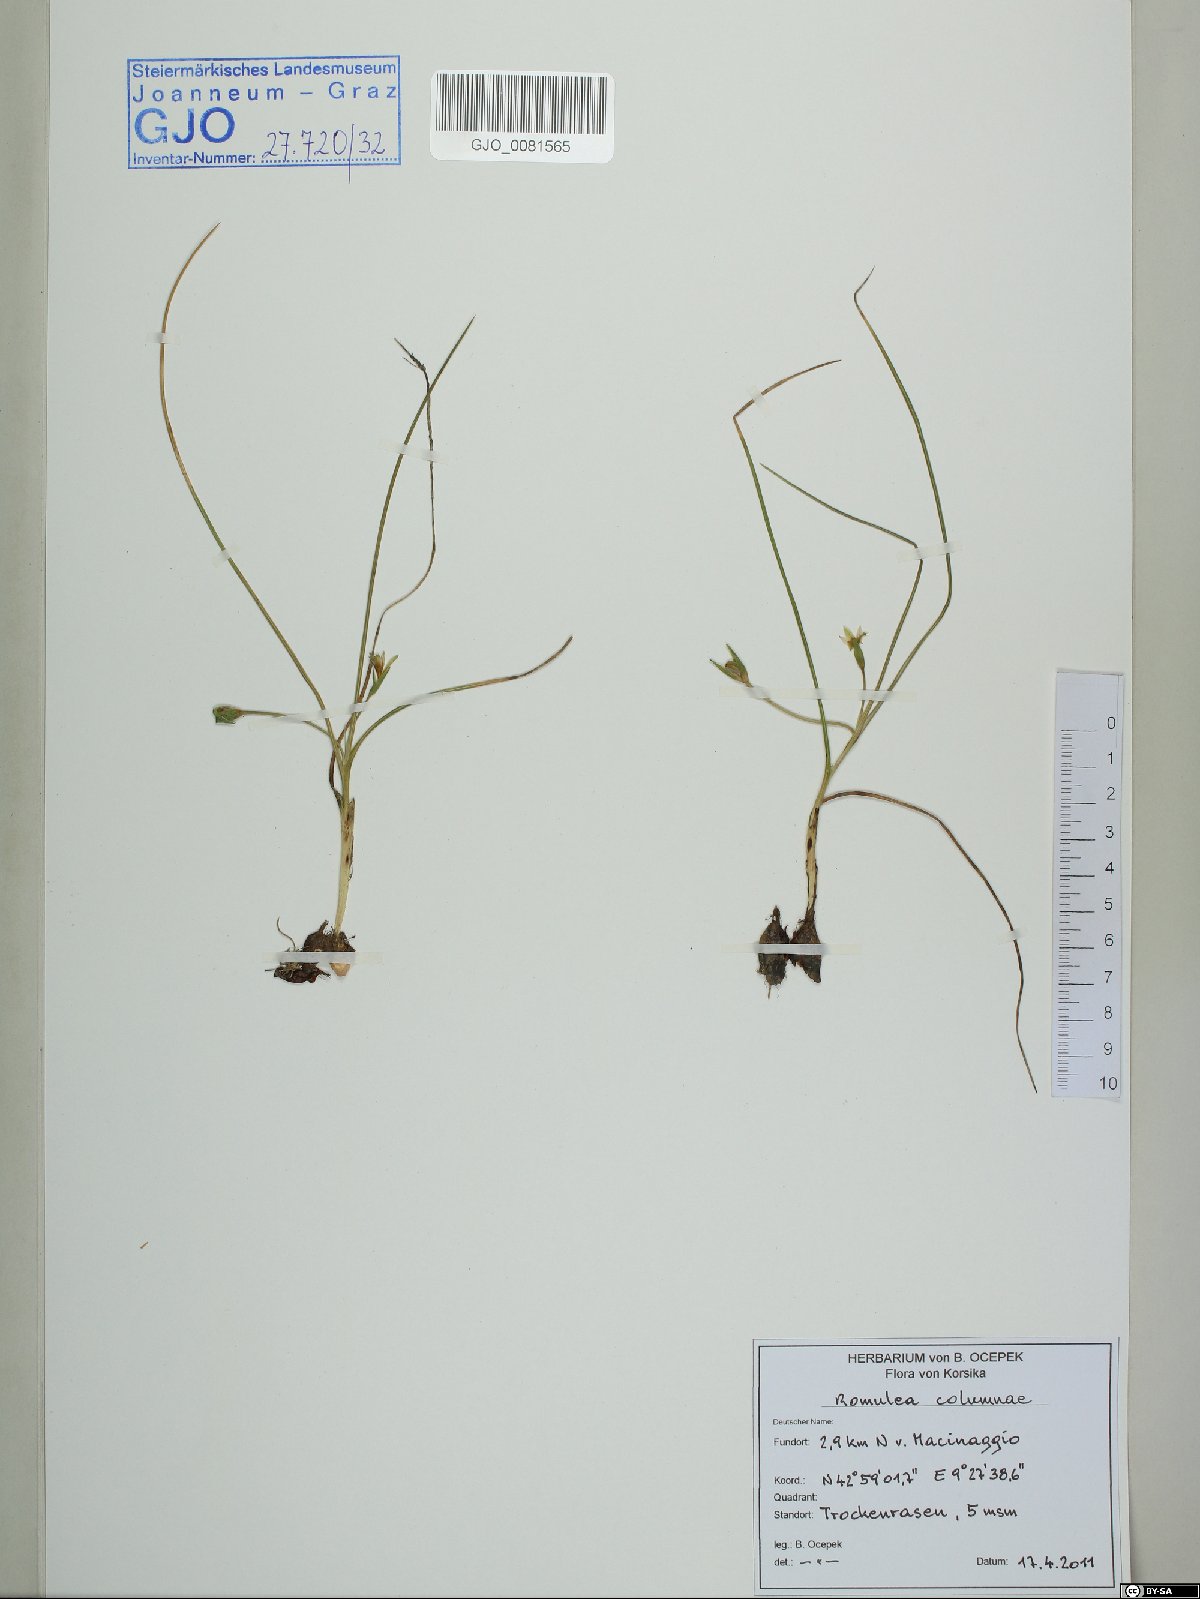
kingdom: Plantae
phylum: Tracheophyta
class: Liliopsida
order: Asparagales
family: Iridaceae
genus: Romulea
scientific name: Romulea columnae
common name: Sand-crocus
